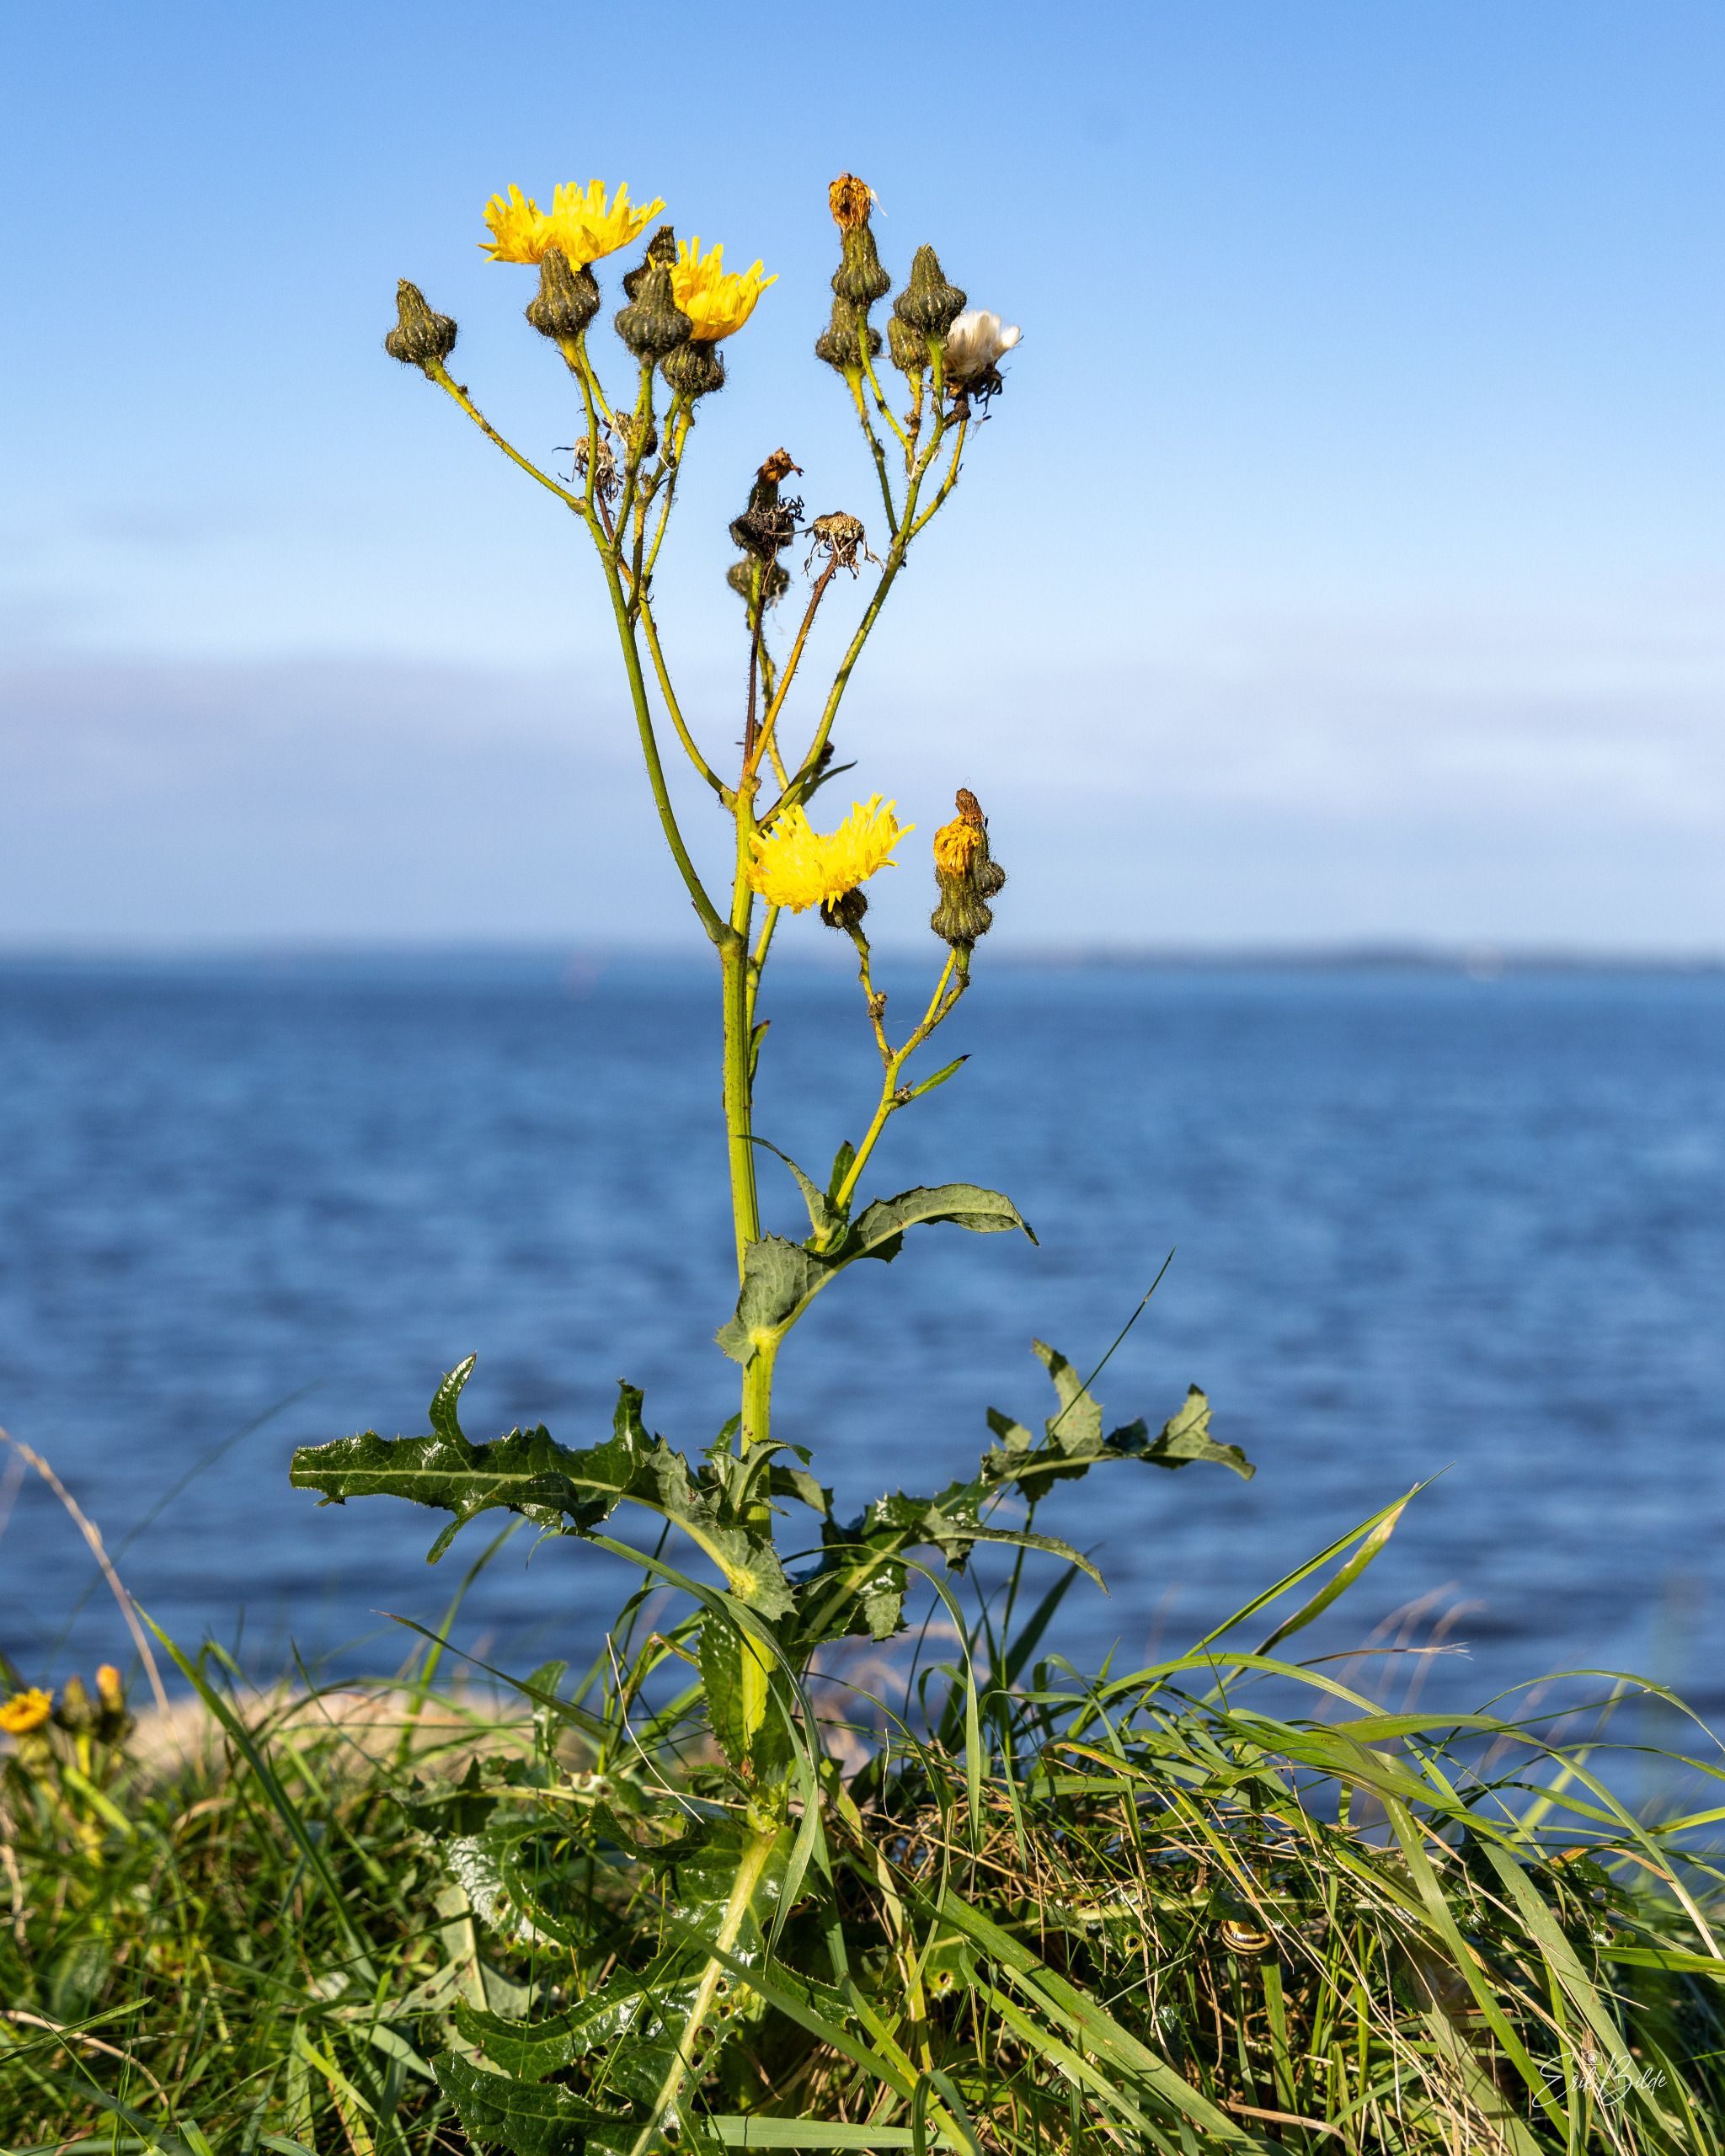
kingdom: Plantae
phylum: Tracheophyta
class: Magnoliopsida
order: Asterales
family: Asteraceae
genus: Sonchus
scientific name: Sonchus arvensis
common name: Ager-svinemælk
